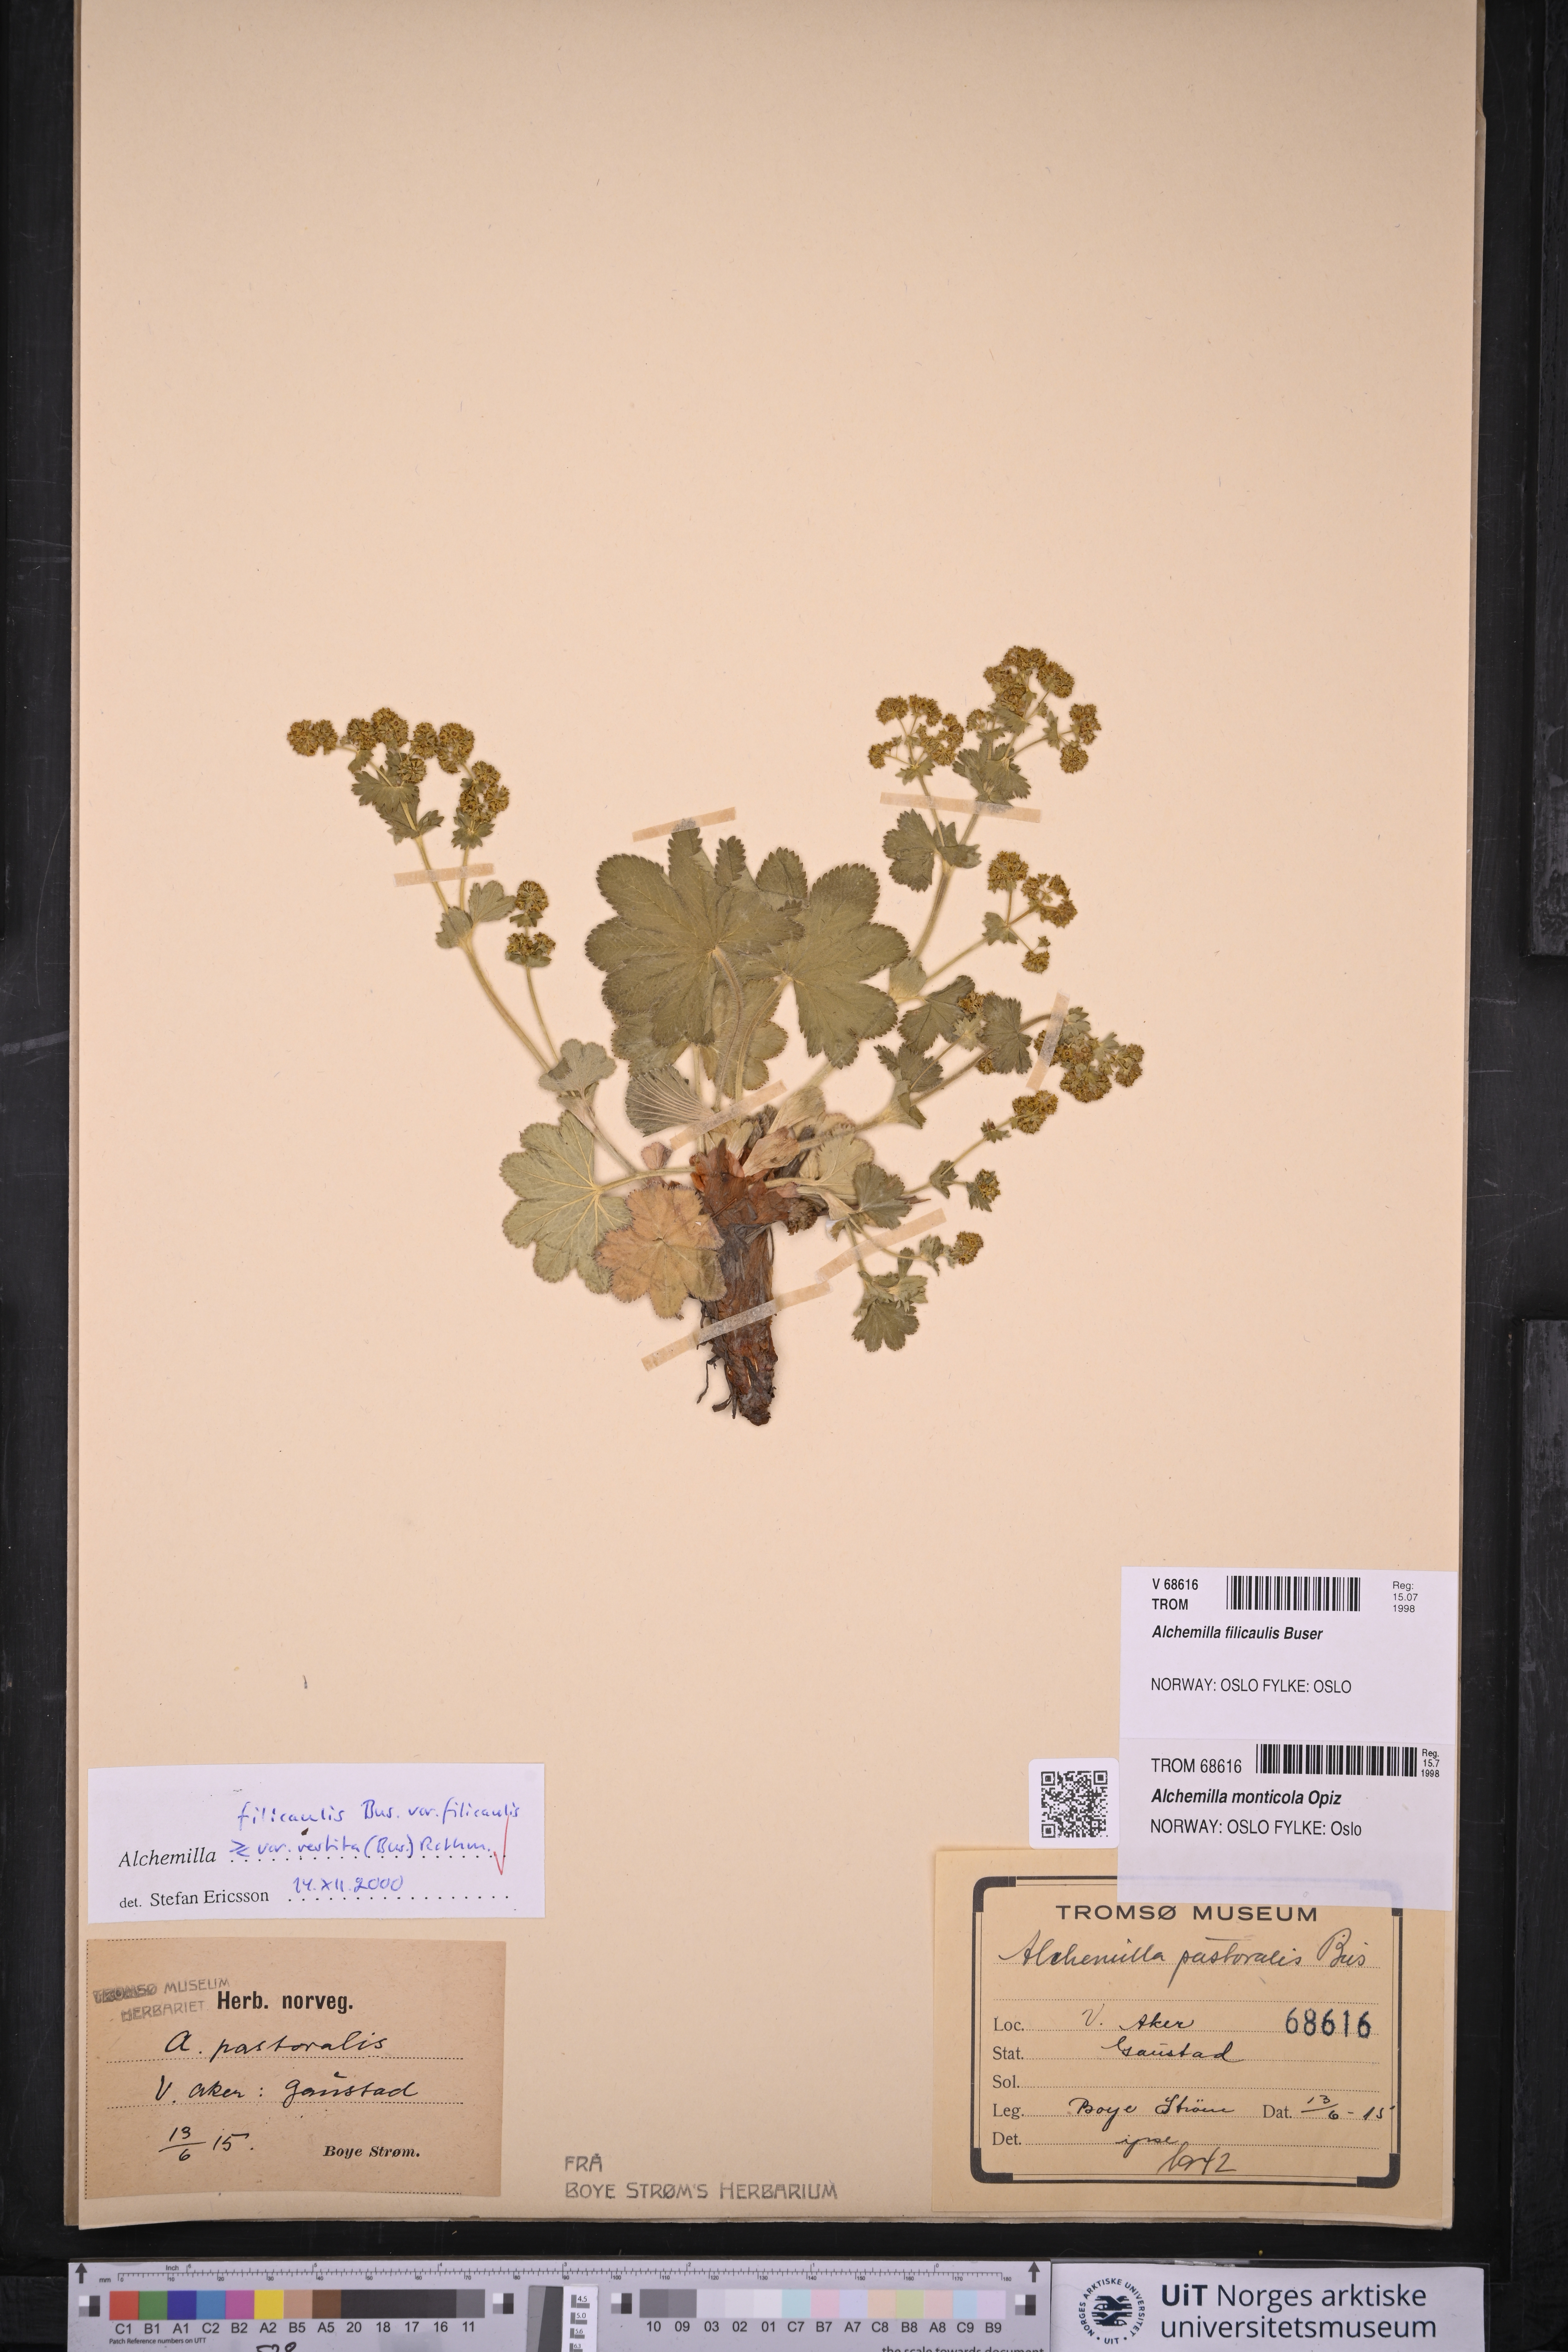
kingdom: Plantae
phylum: Tracheophyta
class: Magnoliopsida
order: Rosales
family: Rosaceae
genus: Alchemilla
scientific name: Alchemilla filicaulis
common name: Hairy lady's-mantle
